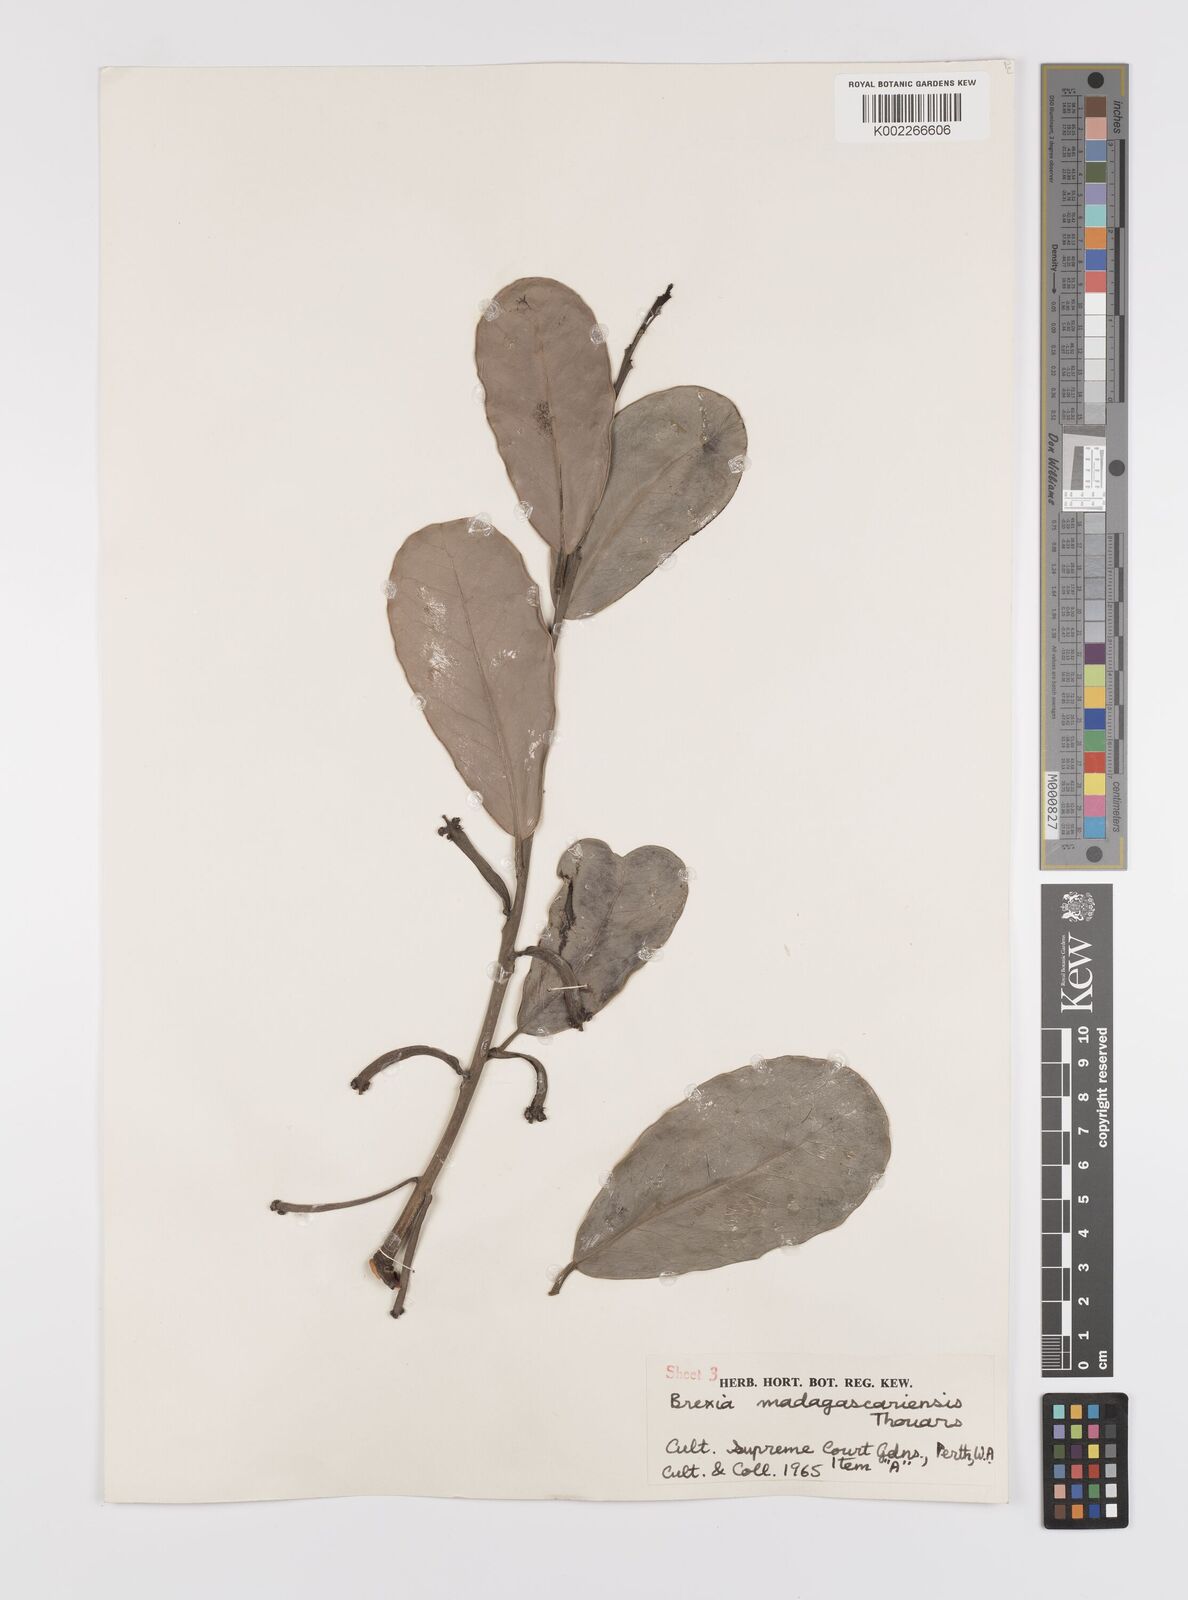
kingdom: Plantae
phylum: Tracheophyta
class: Magnoliopsida
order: Celastrales
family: Celastraceae
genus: Brexia
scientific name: Brexia madagascariensis
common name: Brexia
